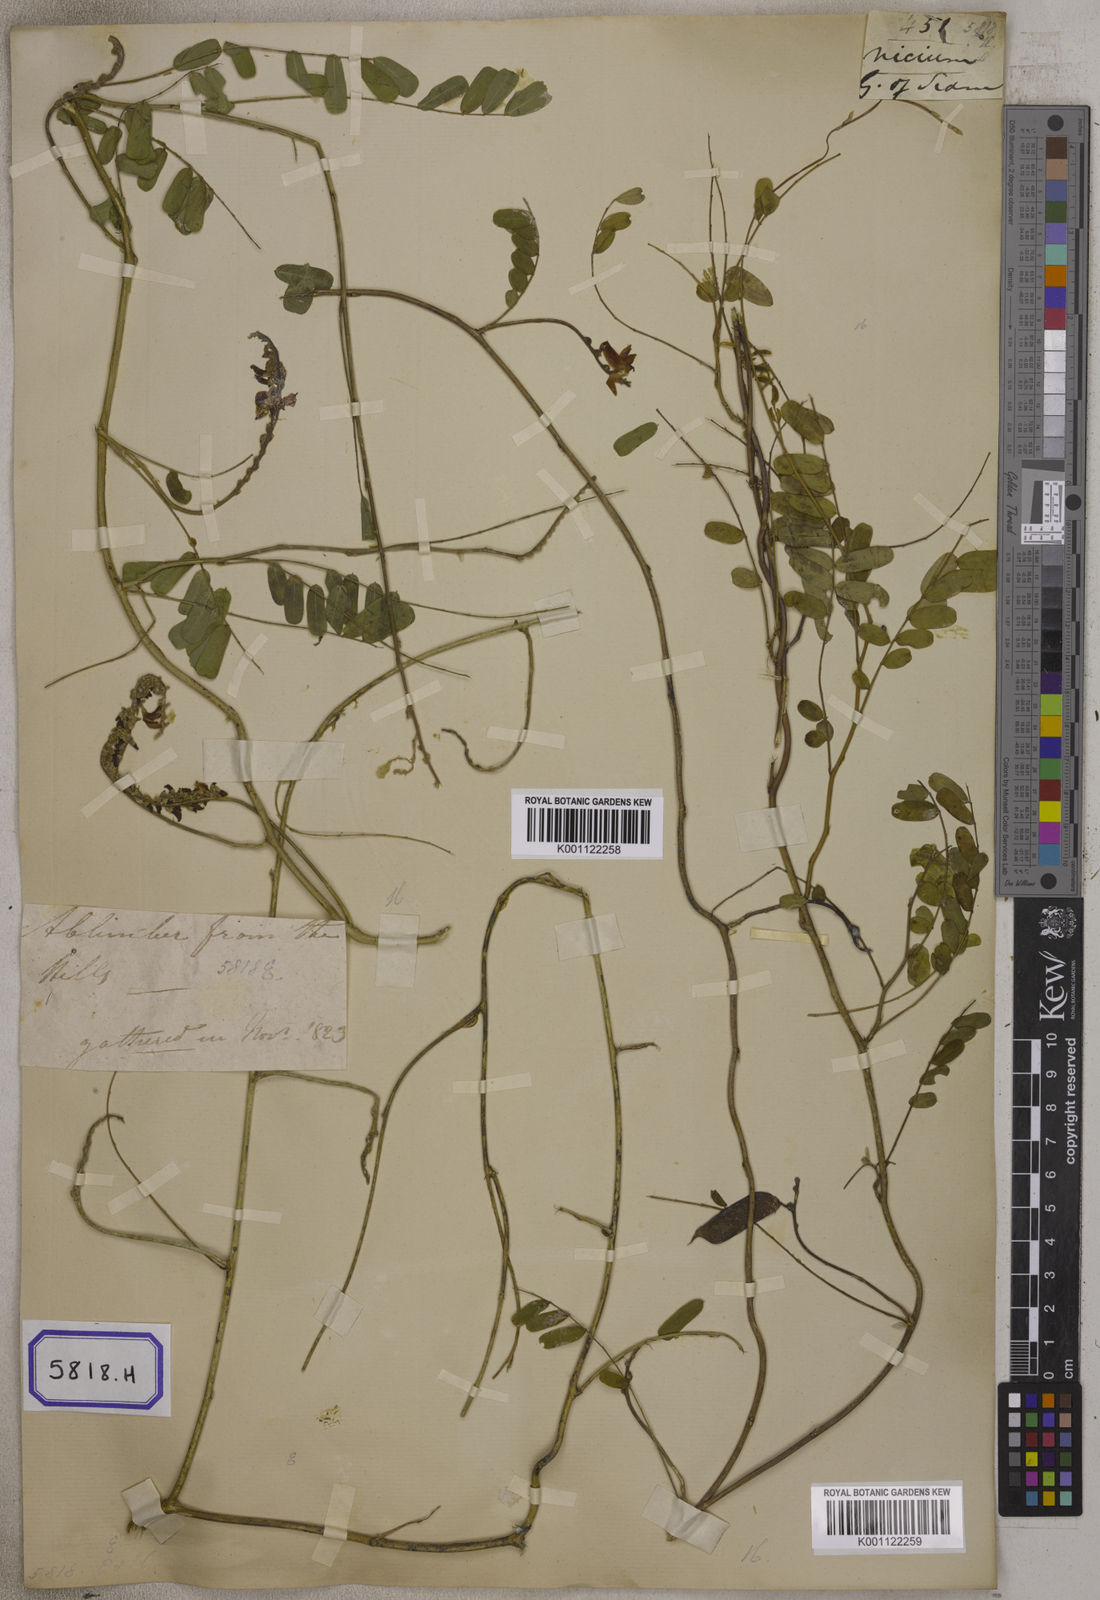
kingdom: Plantae
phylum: Tracheophyta
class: Magnoliopsida
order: Fabales
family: Fabaceae
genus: Abrus
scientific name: Abrus precatorius
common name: Rosarypea
